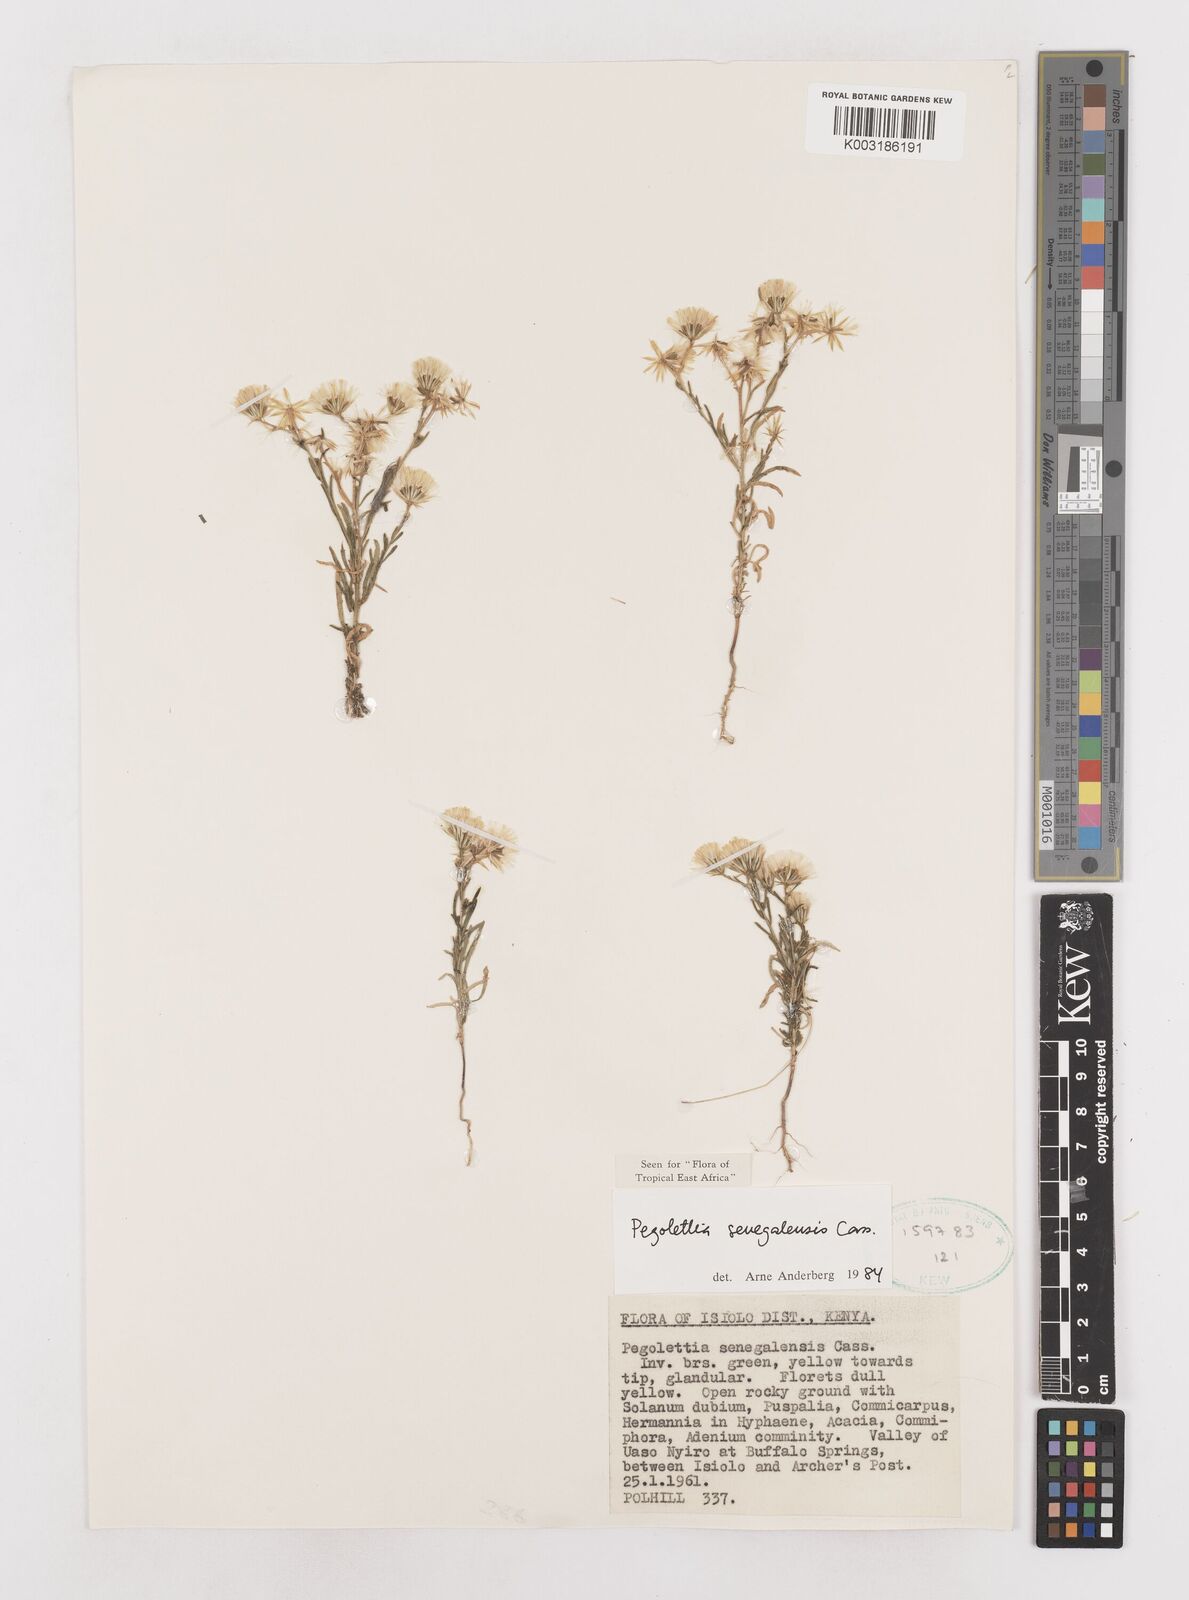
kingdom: Plantae
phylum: Tracheophyta
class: Magnoliopsida
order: Asterales
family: Asteraceae
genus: Pegolettia
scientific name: Pegolettia senegalensis
